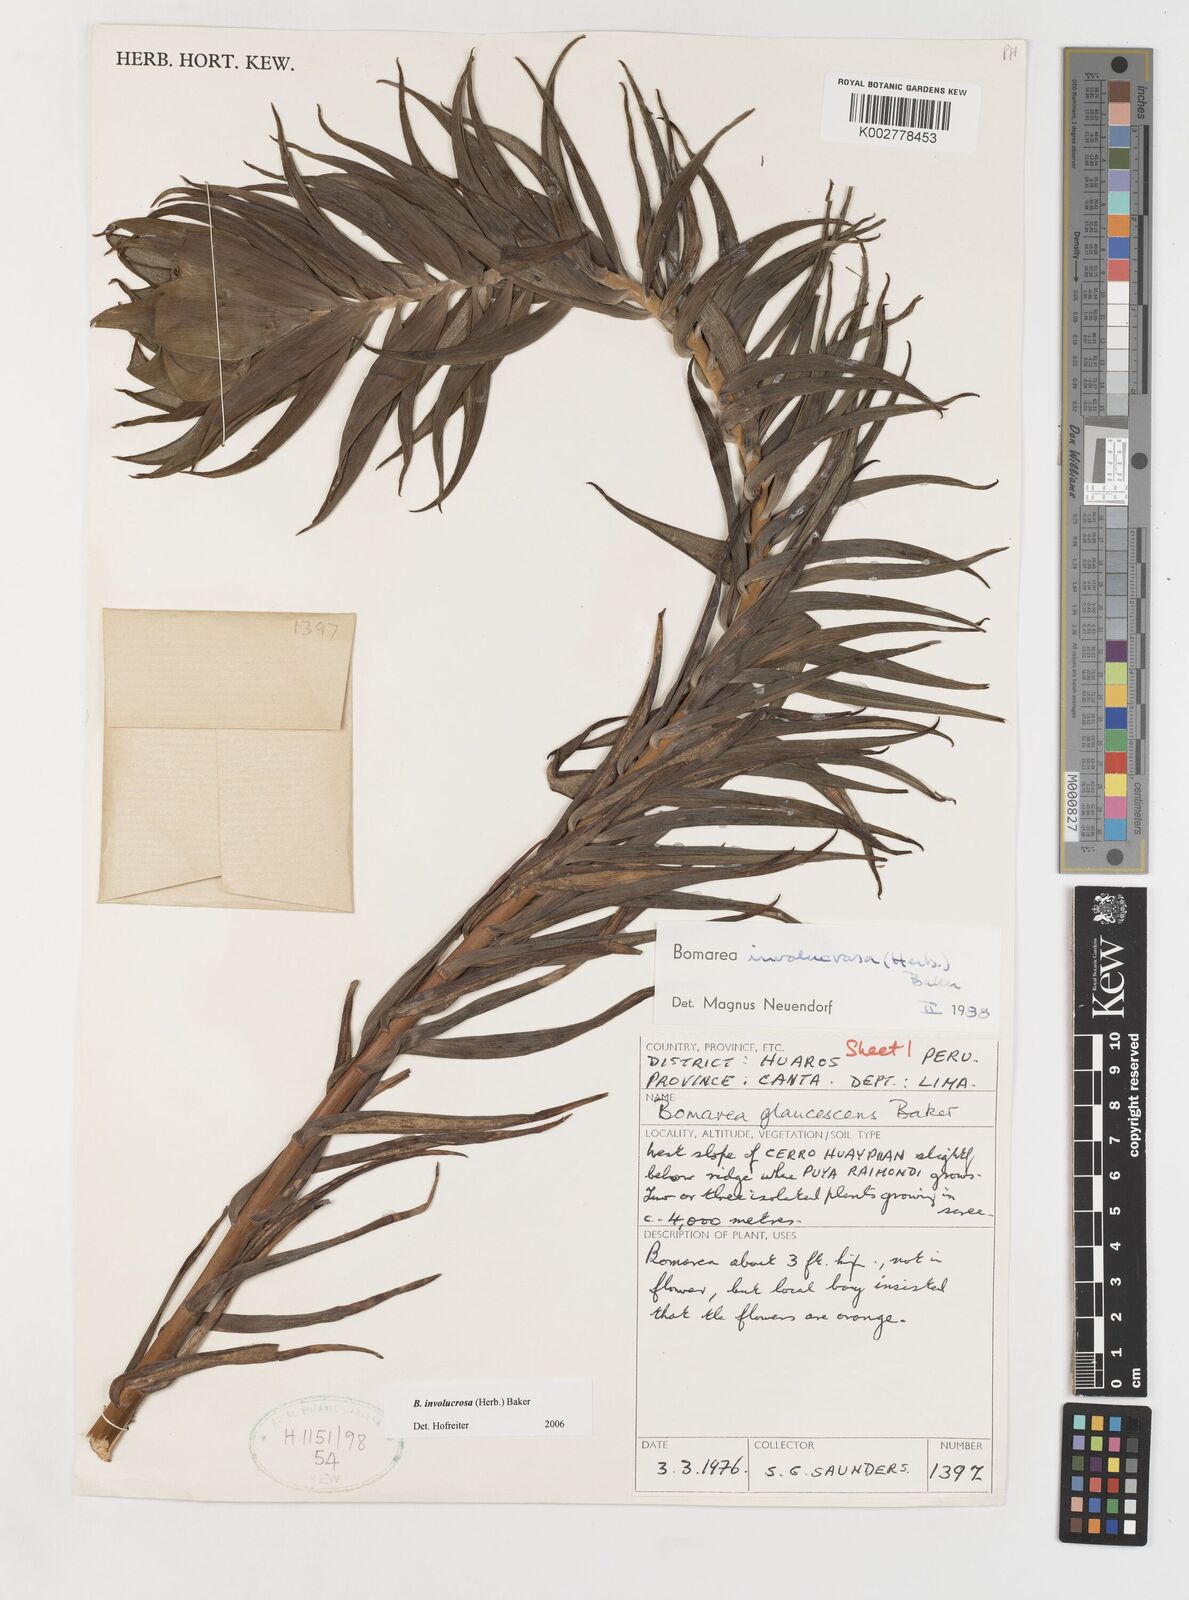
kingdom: Plantae
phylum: Tracheophyta
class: Liliopsida
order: Liliales
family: Alstroemeriaceae
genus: Bomarea
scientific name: Bomarea involucrosa
